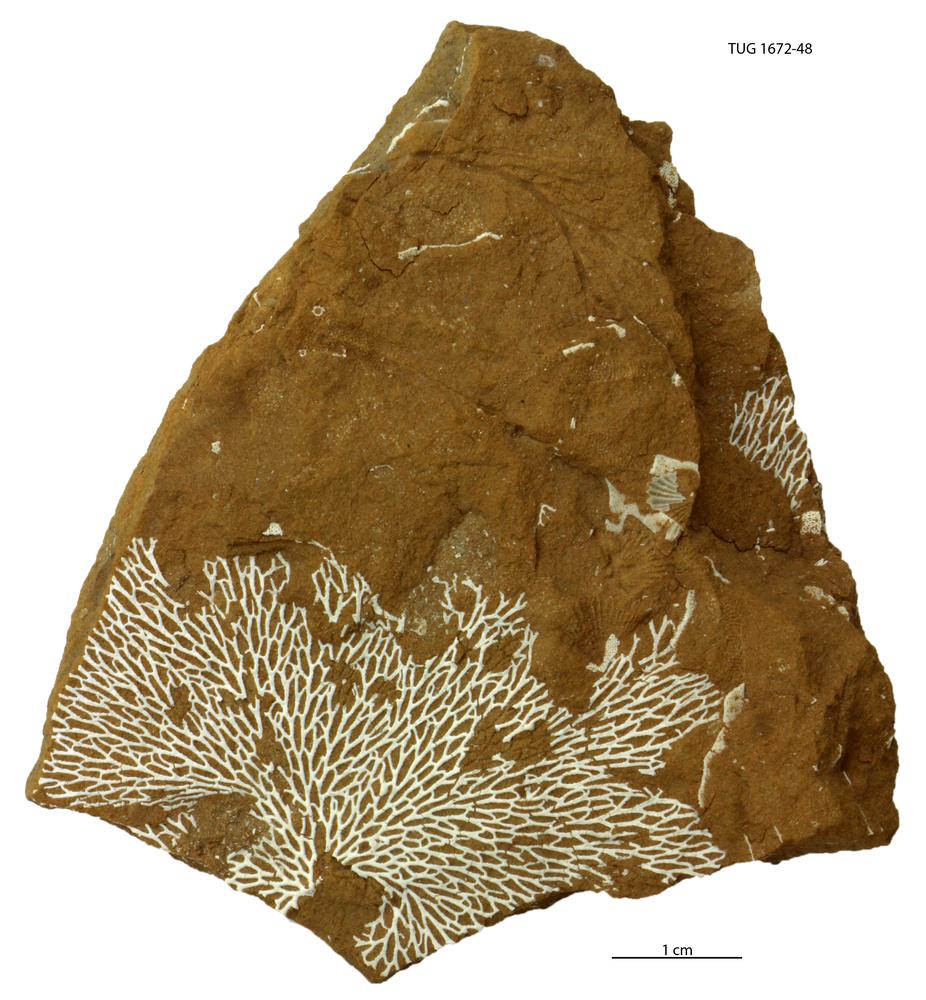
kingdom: Animalia
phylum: Bryozoa
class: Stenolaemata
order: Fenestrida
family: Phylloporinidae
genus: Pseudohornera
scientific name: Pseudohornera bifida
